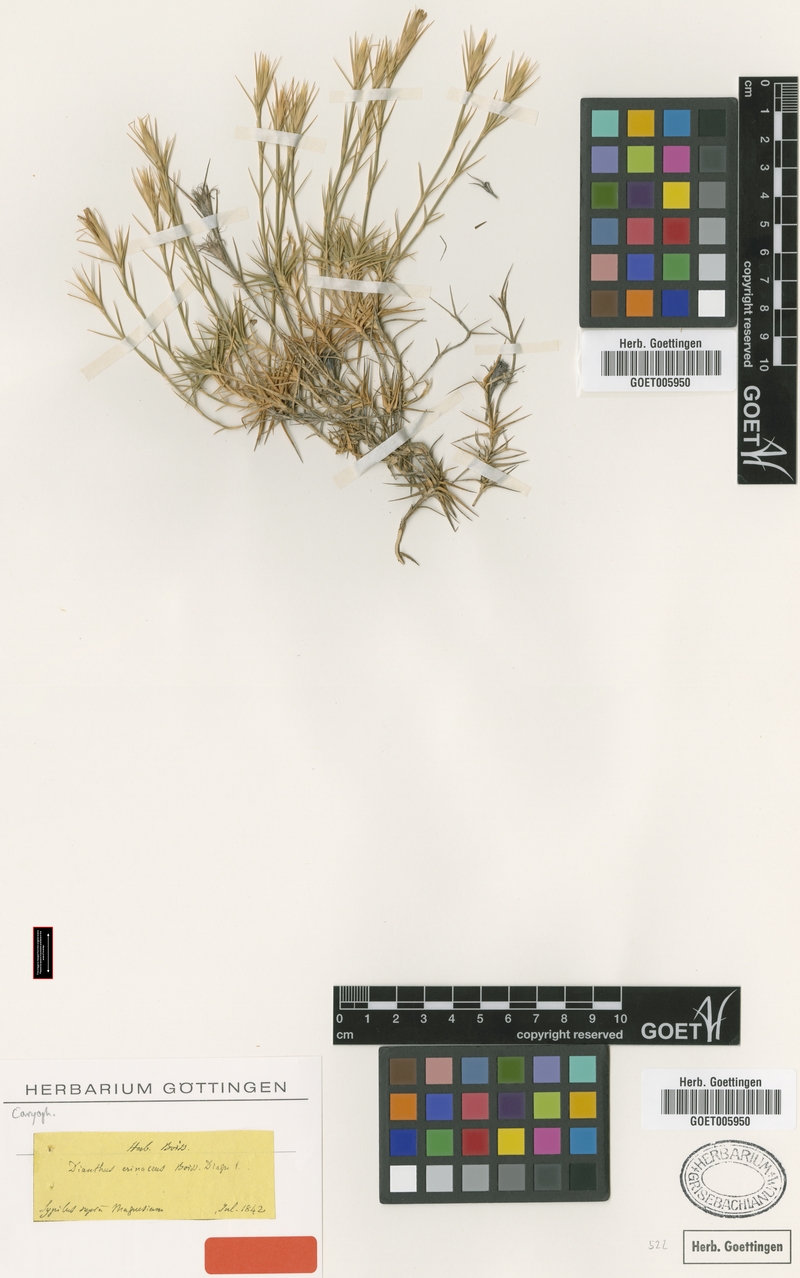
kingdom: Plantae
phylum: Tracheophyta
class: Magnoliopsida
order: Caryophyllales
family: Caryophyllaceae
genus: Dianthus
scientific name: Dianthus webbianus
